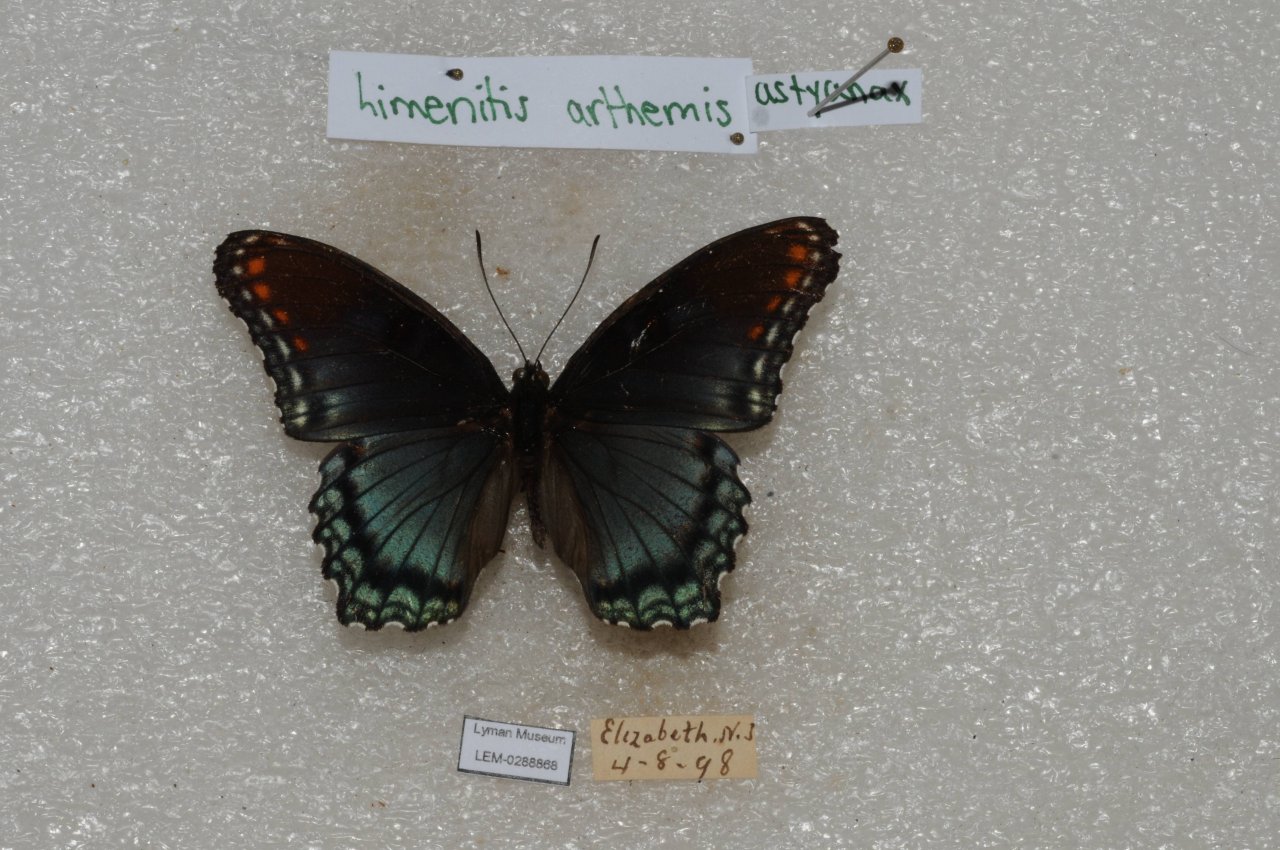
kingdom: Animalia
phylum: Arthropoda
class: Insecta
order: Lepidoptera
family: Nymphalidae
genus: Limenitis
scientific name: Limenitis astyanax
